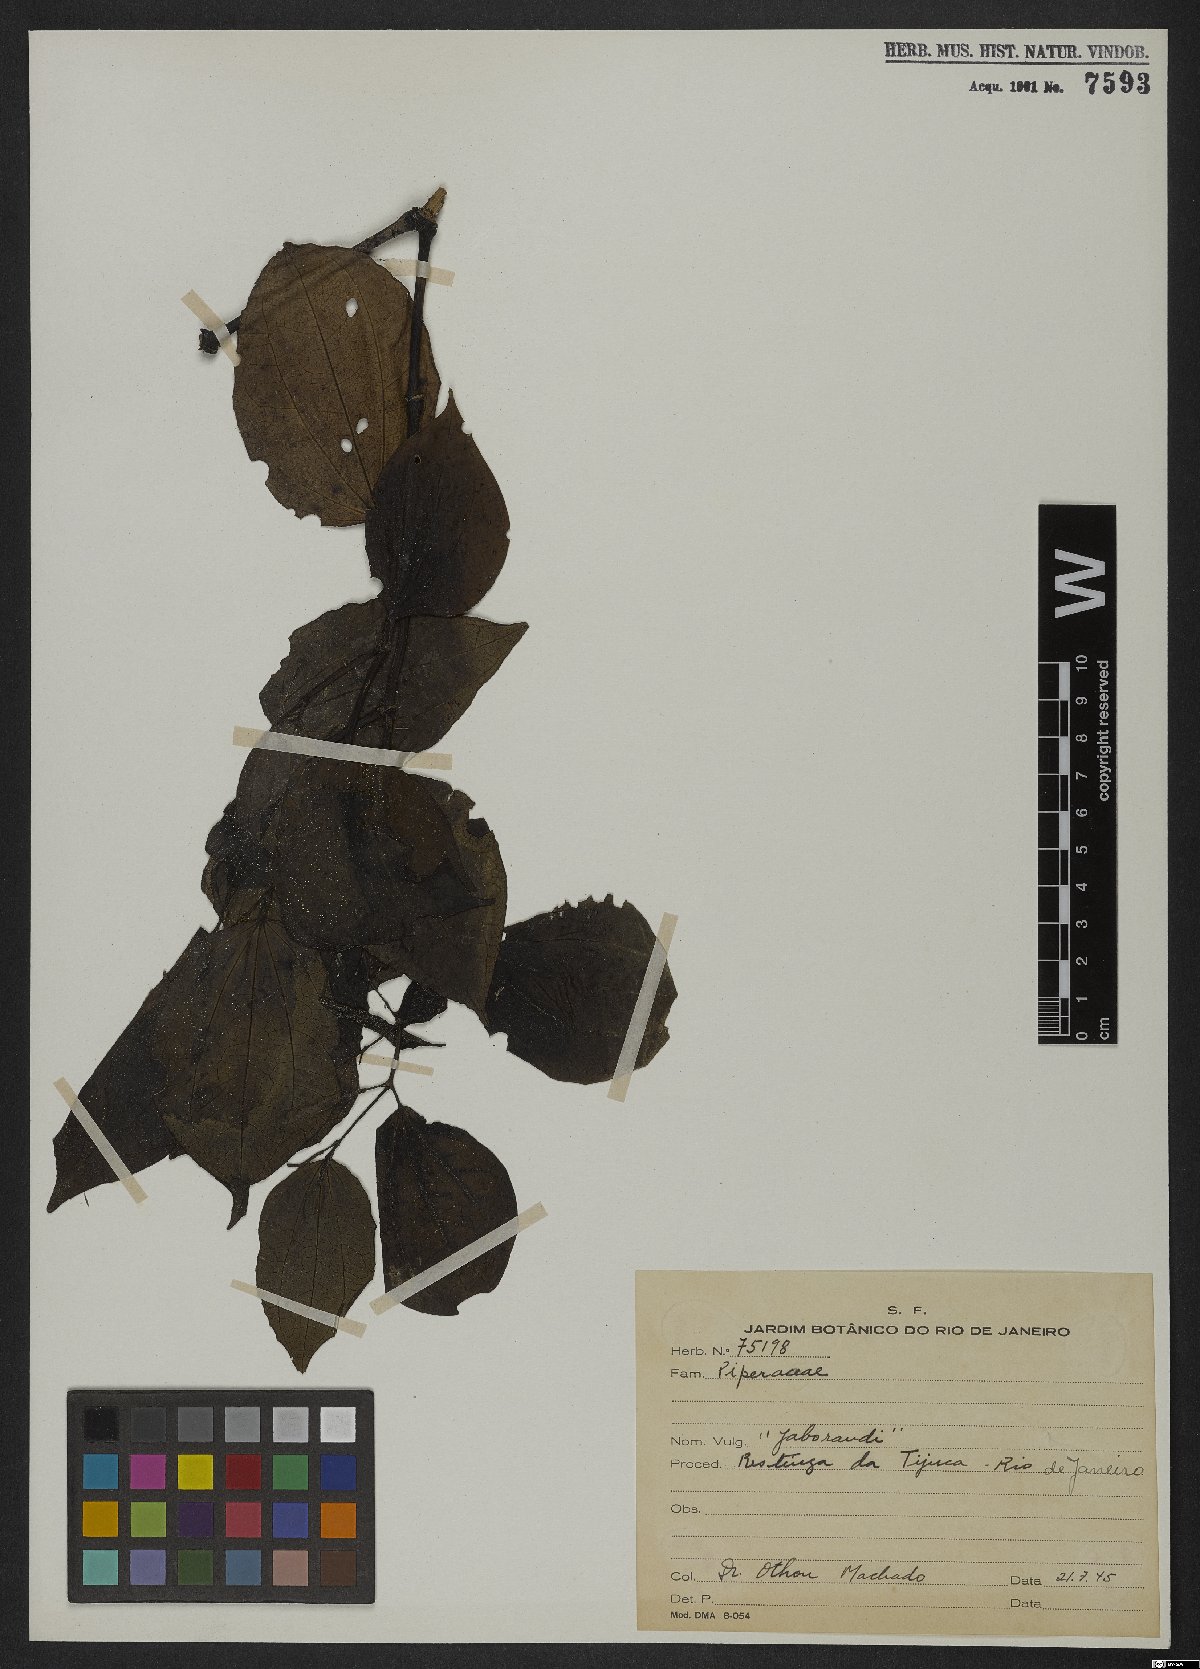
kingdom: Plantae
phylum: Tracheophyta
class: Magnoliopsida
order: Piperales
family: Piperaceae
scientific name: Piperaceae
